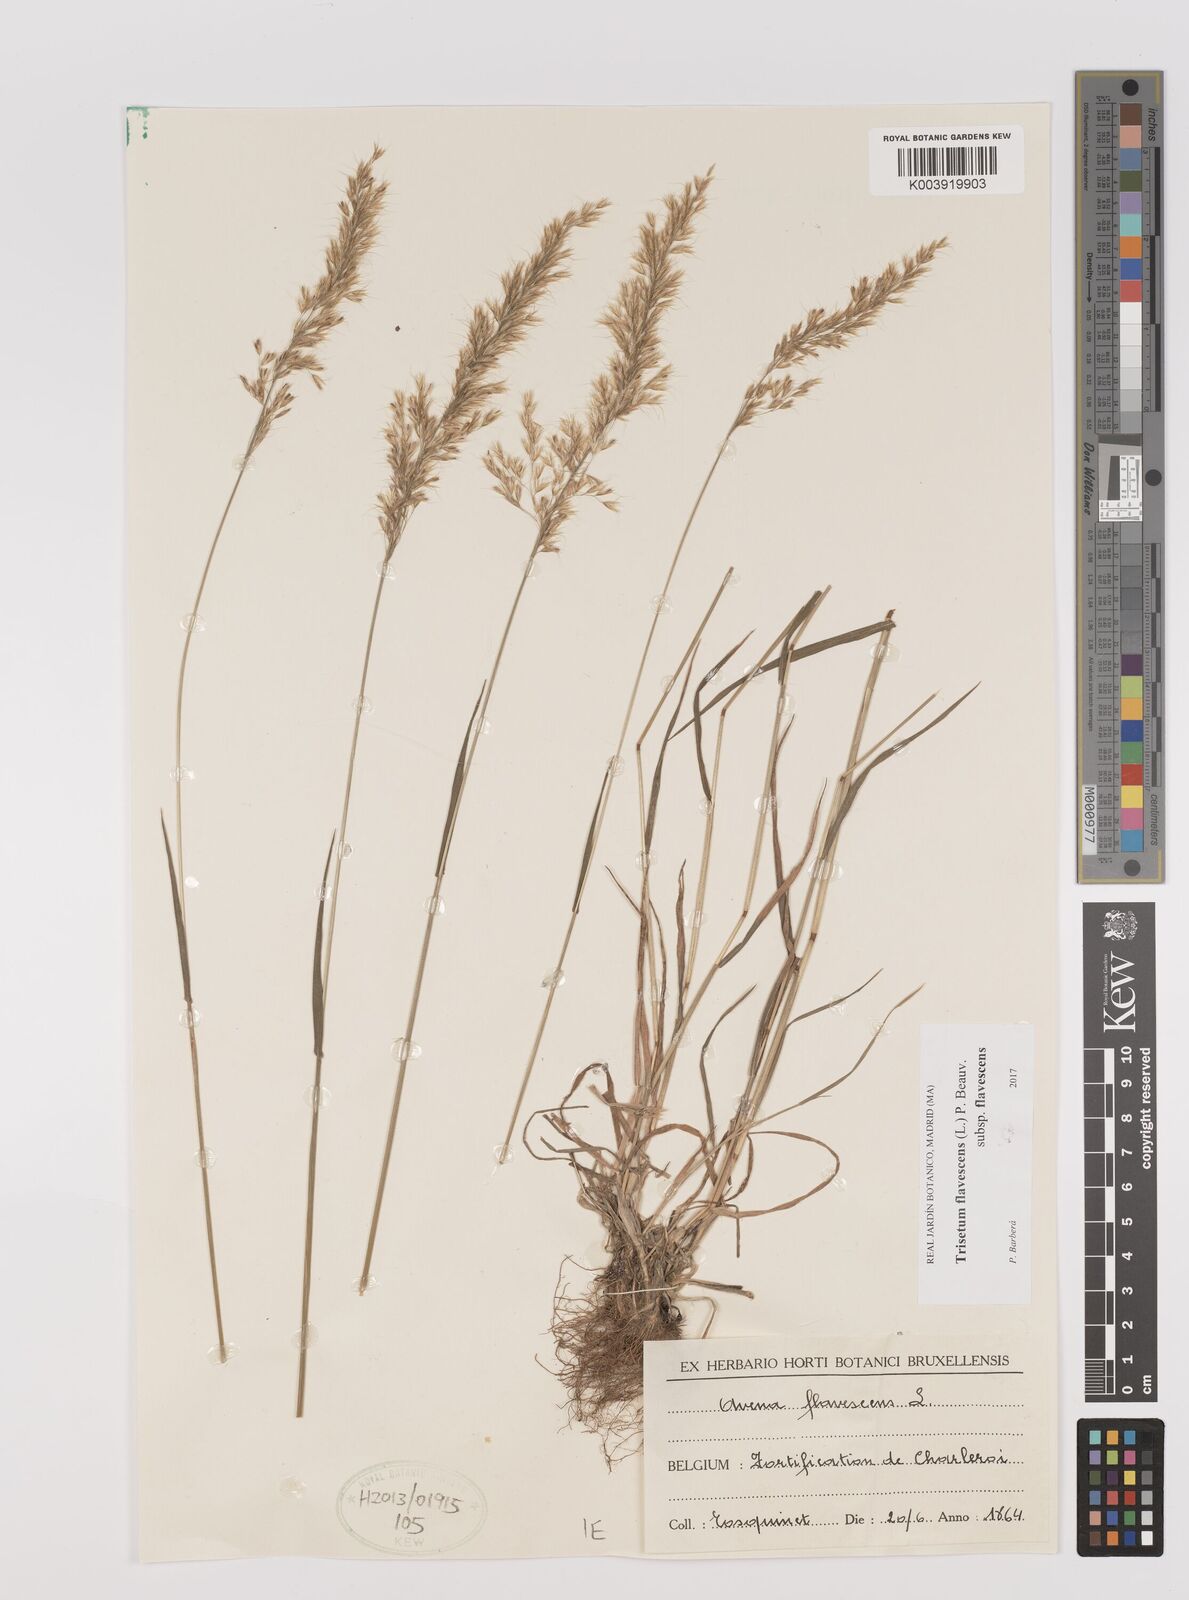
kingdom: Plantae
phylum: Tracheophyta
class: Liliopsida
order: Poales
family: Poaceae
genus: Trisetum
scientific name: Trisetum flavescens
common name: Yellow oat-grass
